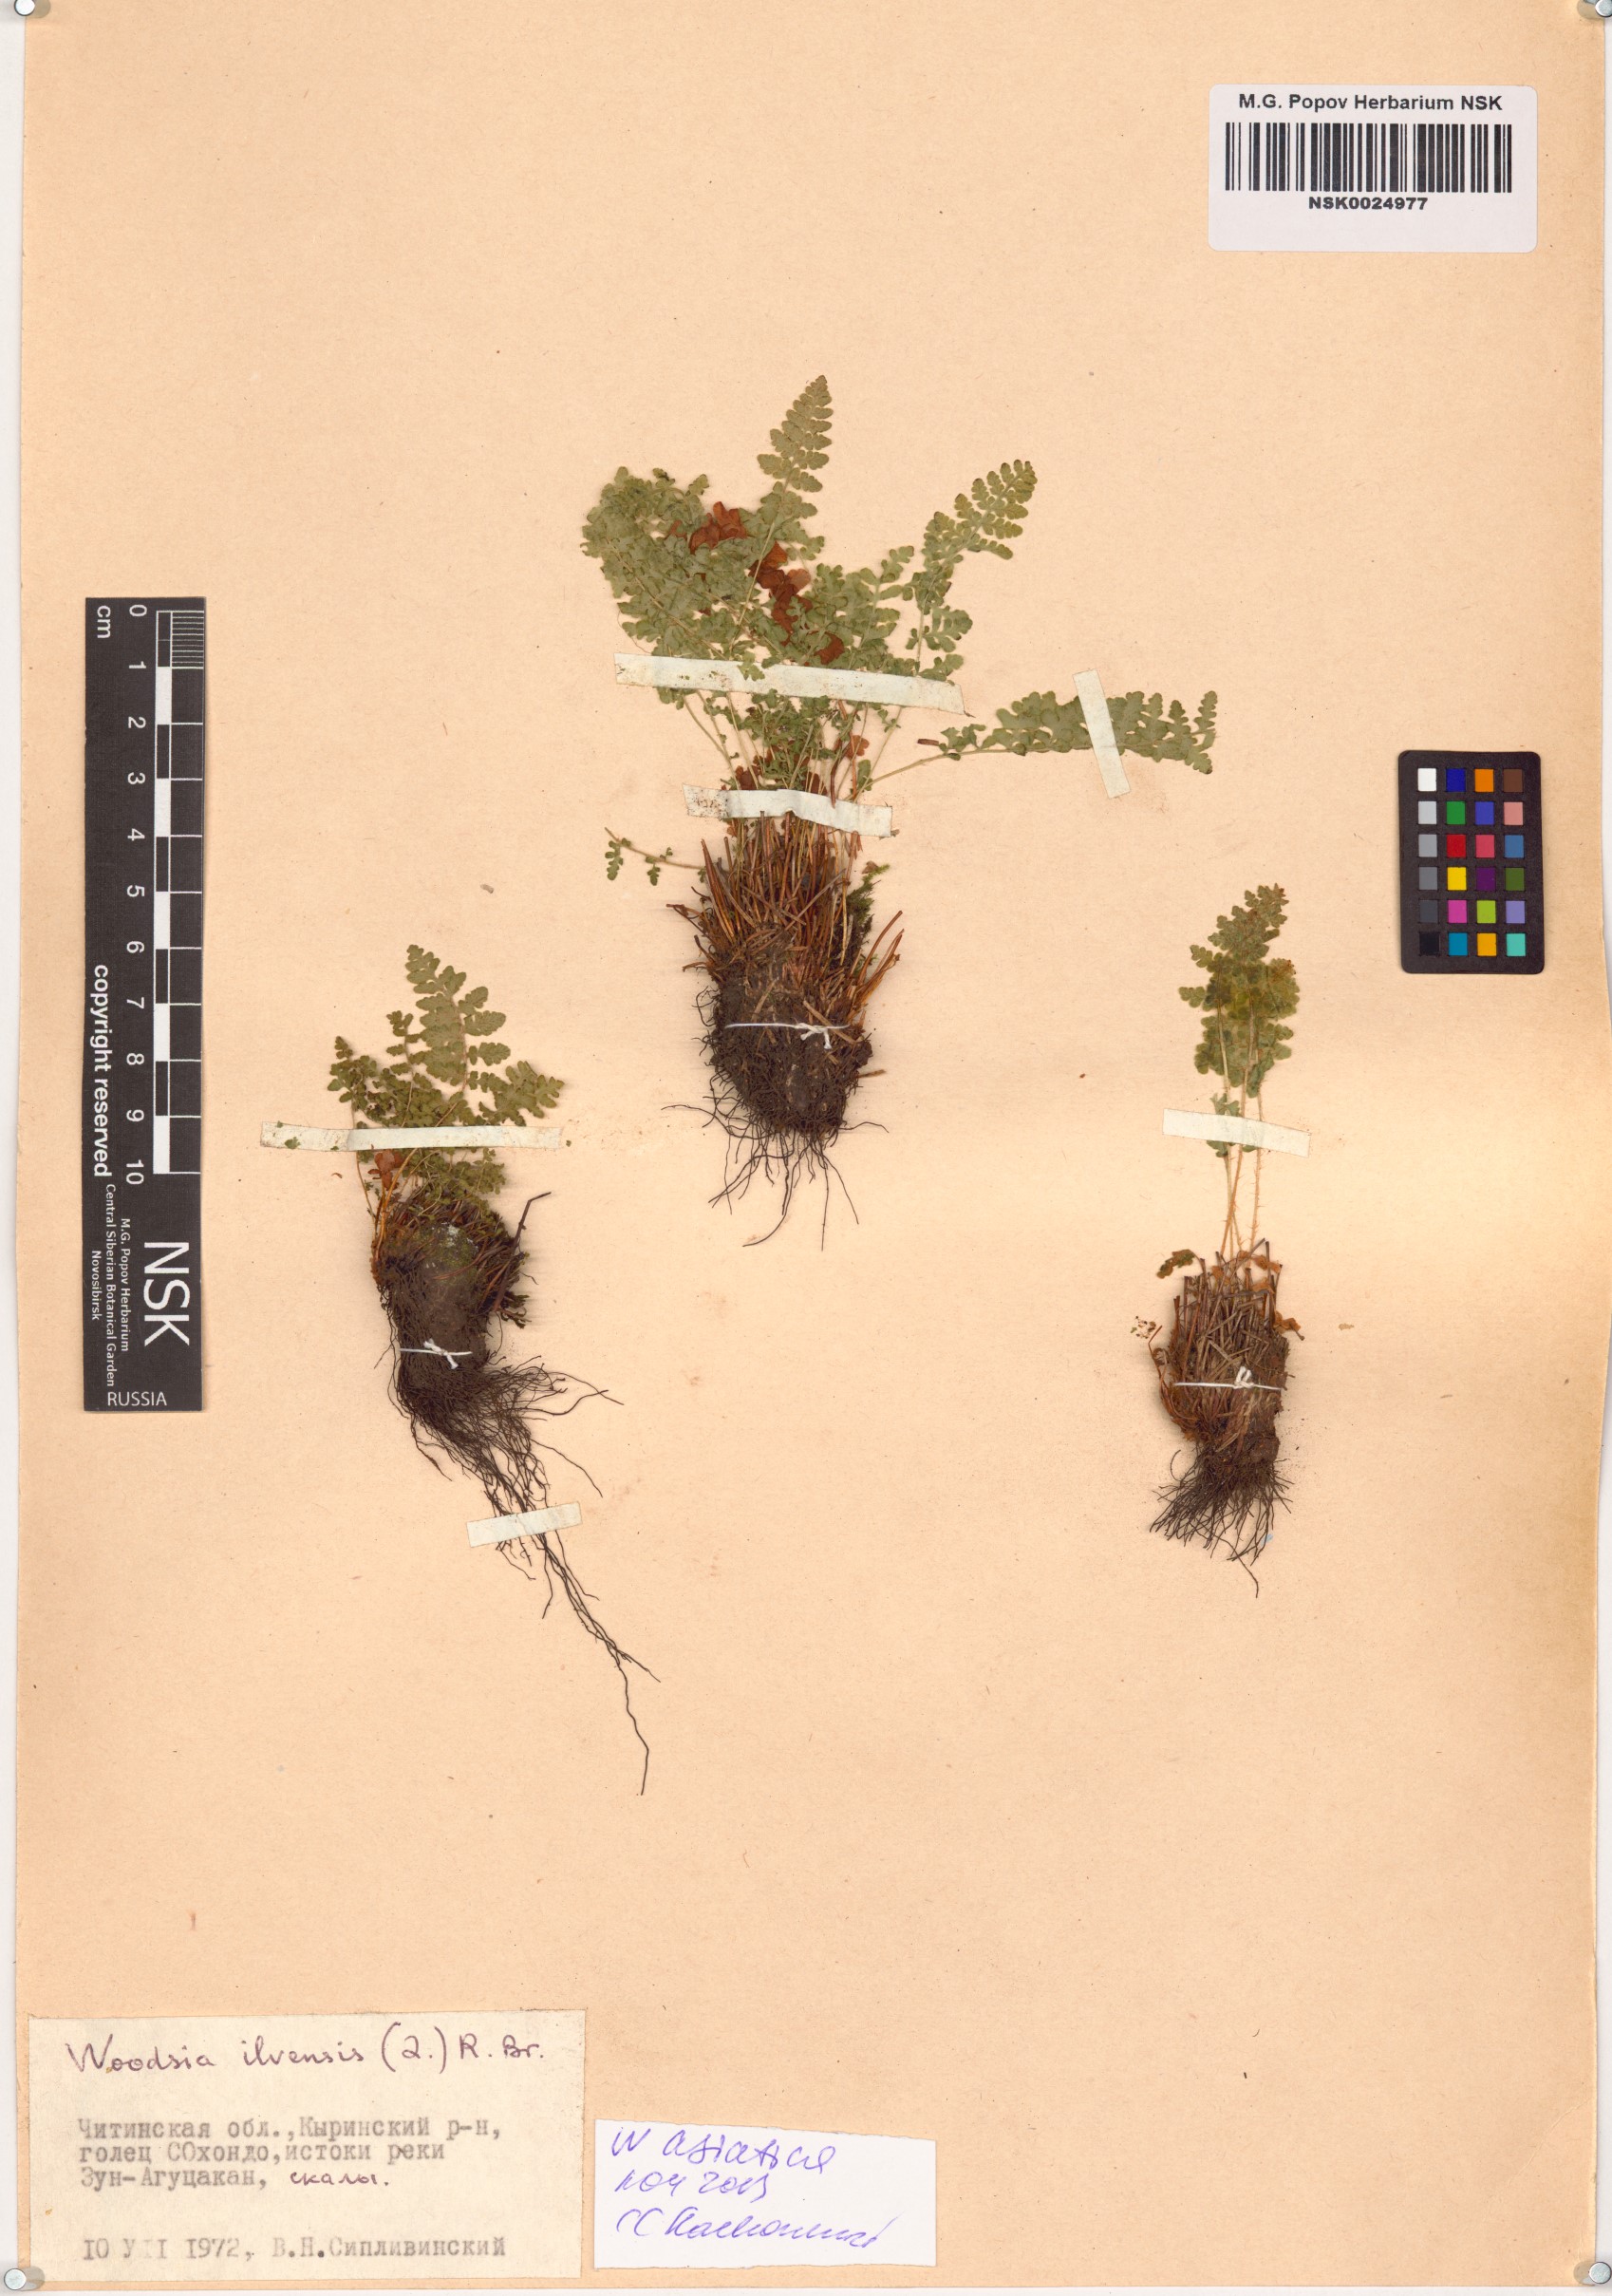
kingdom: Plantae
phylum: Tracheophyta
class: Polypodiopsida
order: Polypodiales
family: Woodsiaceae
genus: Woodsia
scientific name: Woodsia asiatica
